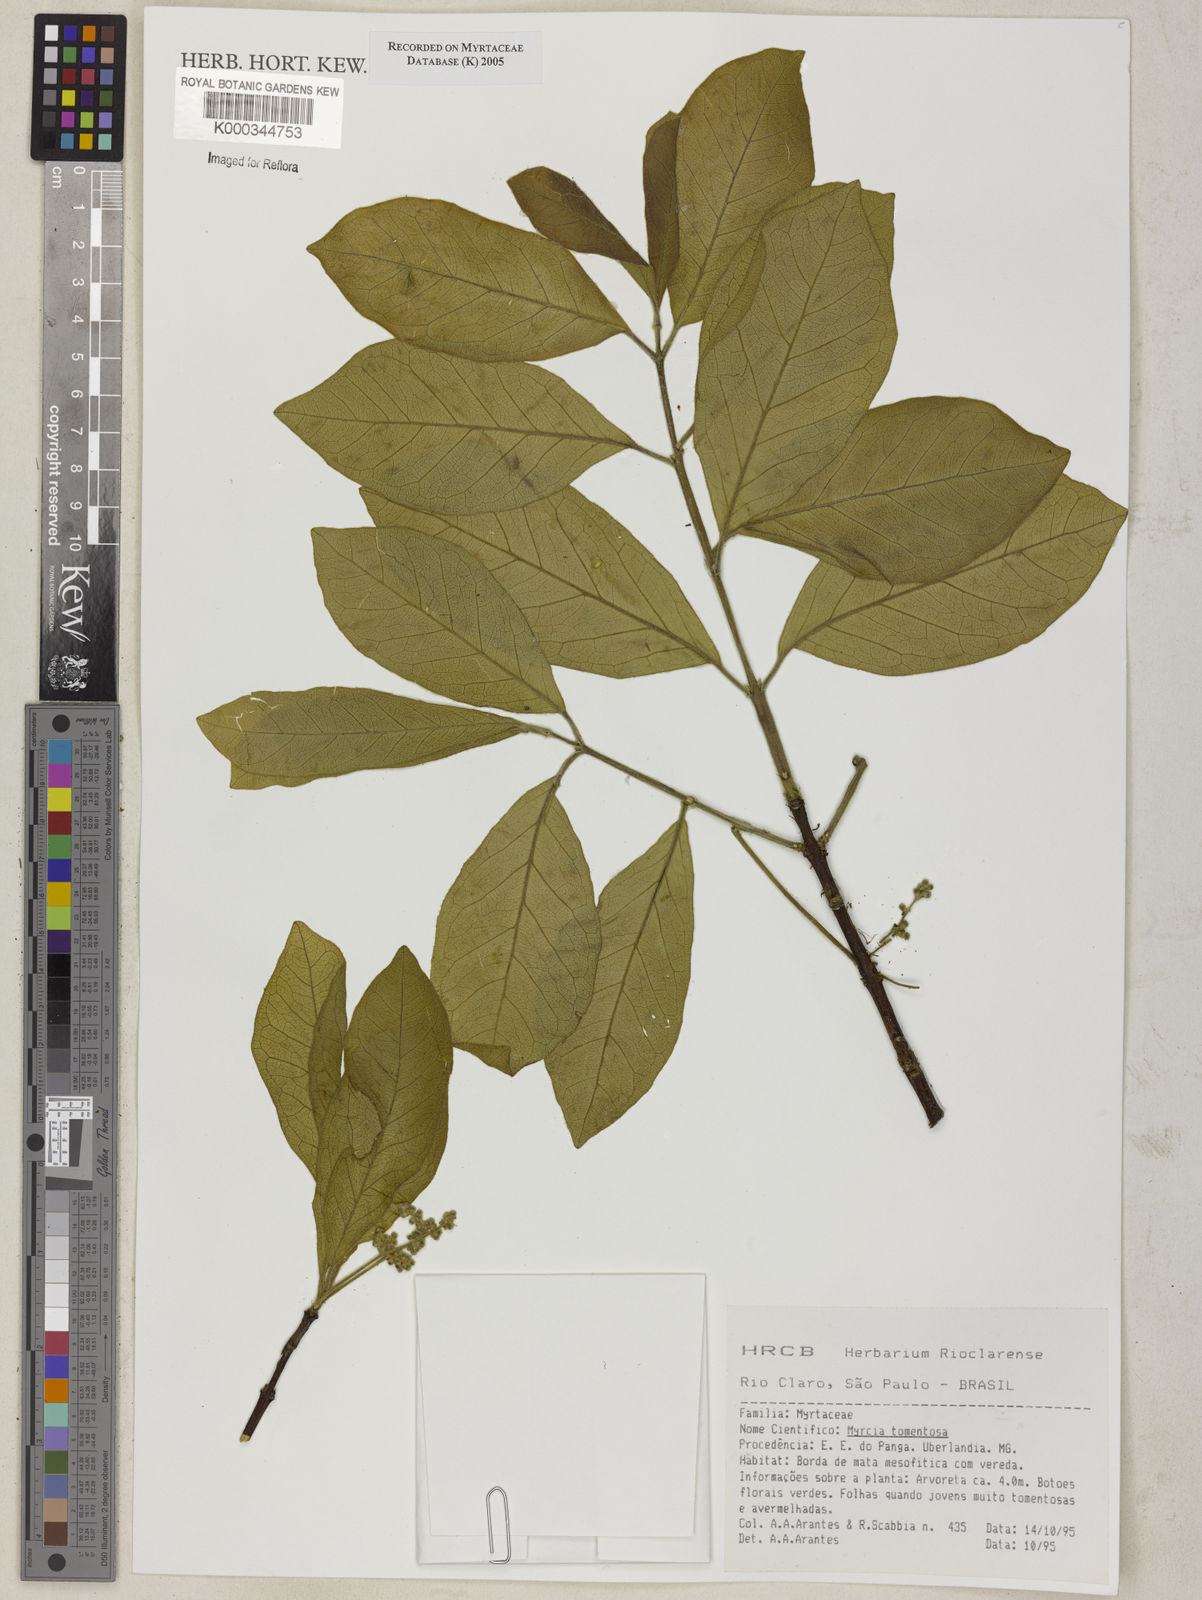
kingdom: Plantae
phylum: Tracheophyta
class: Magnoliopsida
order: Myrtales
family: Myrtaceae
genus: Myrcia
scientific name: Myrcia tomentosa
